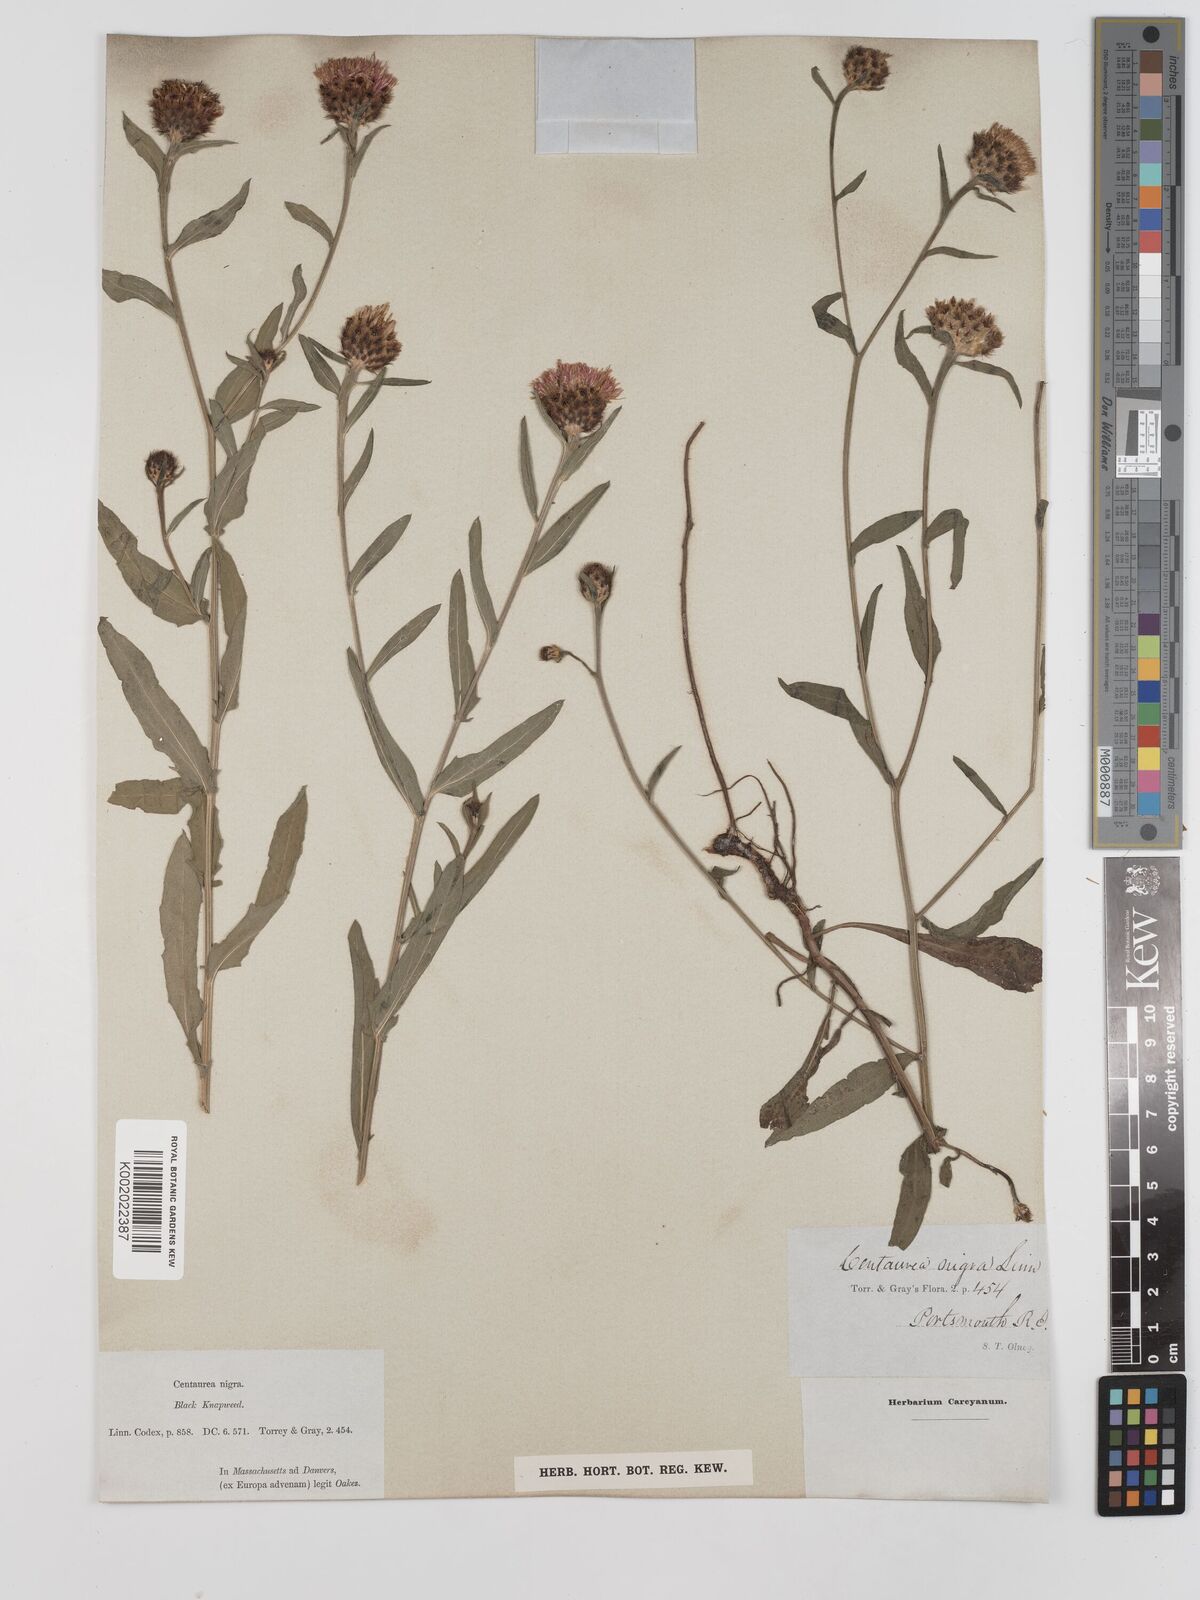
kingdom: Plantae
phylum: Tracheophyta
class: Magnoliopsida
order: Asterales
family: Asteraceae
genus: Centaurea
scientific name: Centaurea nigra
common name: Lesser knapweed
